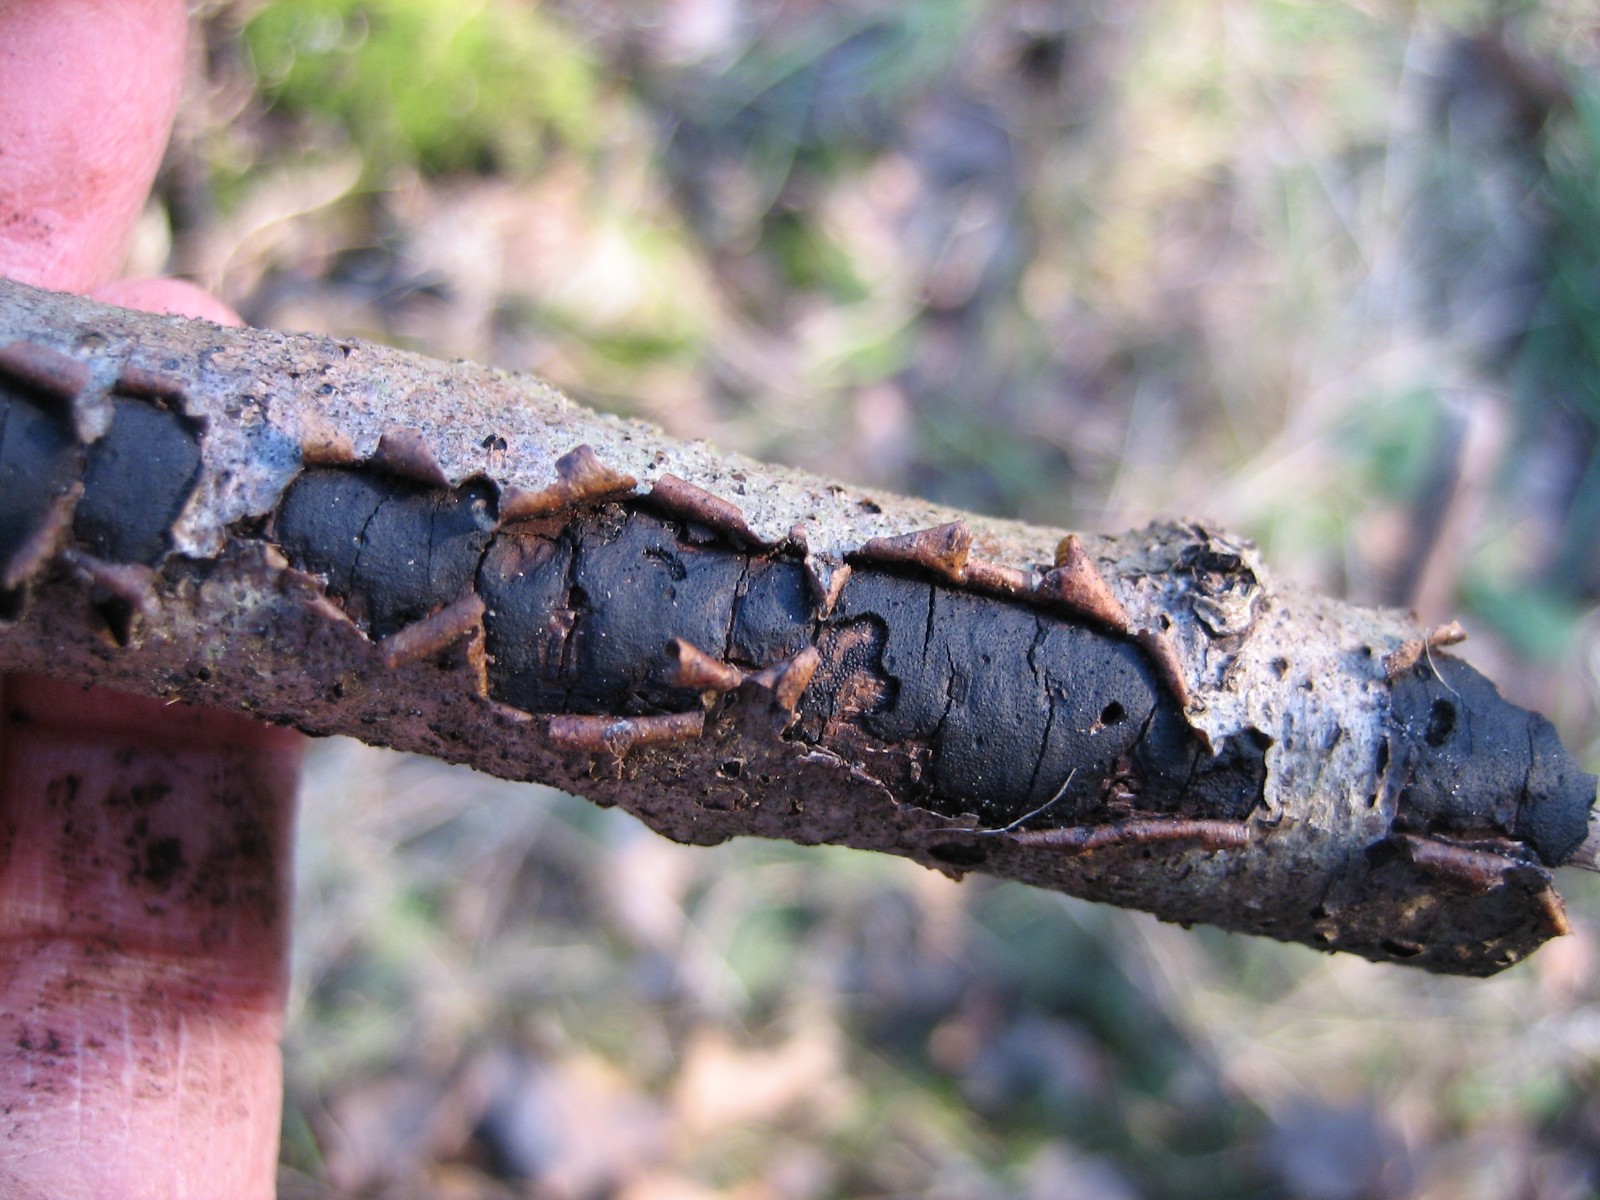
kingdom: Fungi
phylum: Ascomycota
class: Sordariomycetes
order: Xylariales
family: Diatrypaceae
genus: Diatrype
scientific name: Diatrype stigma
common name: udbredt kulskorpe
